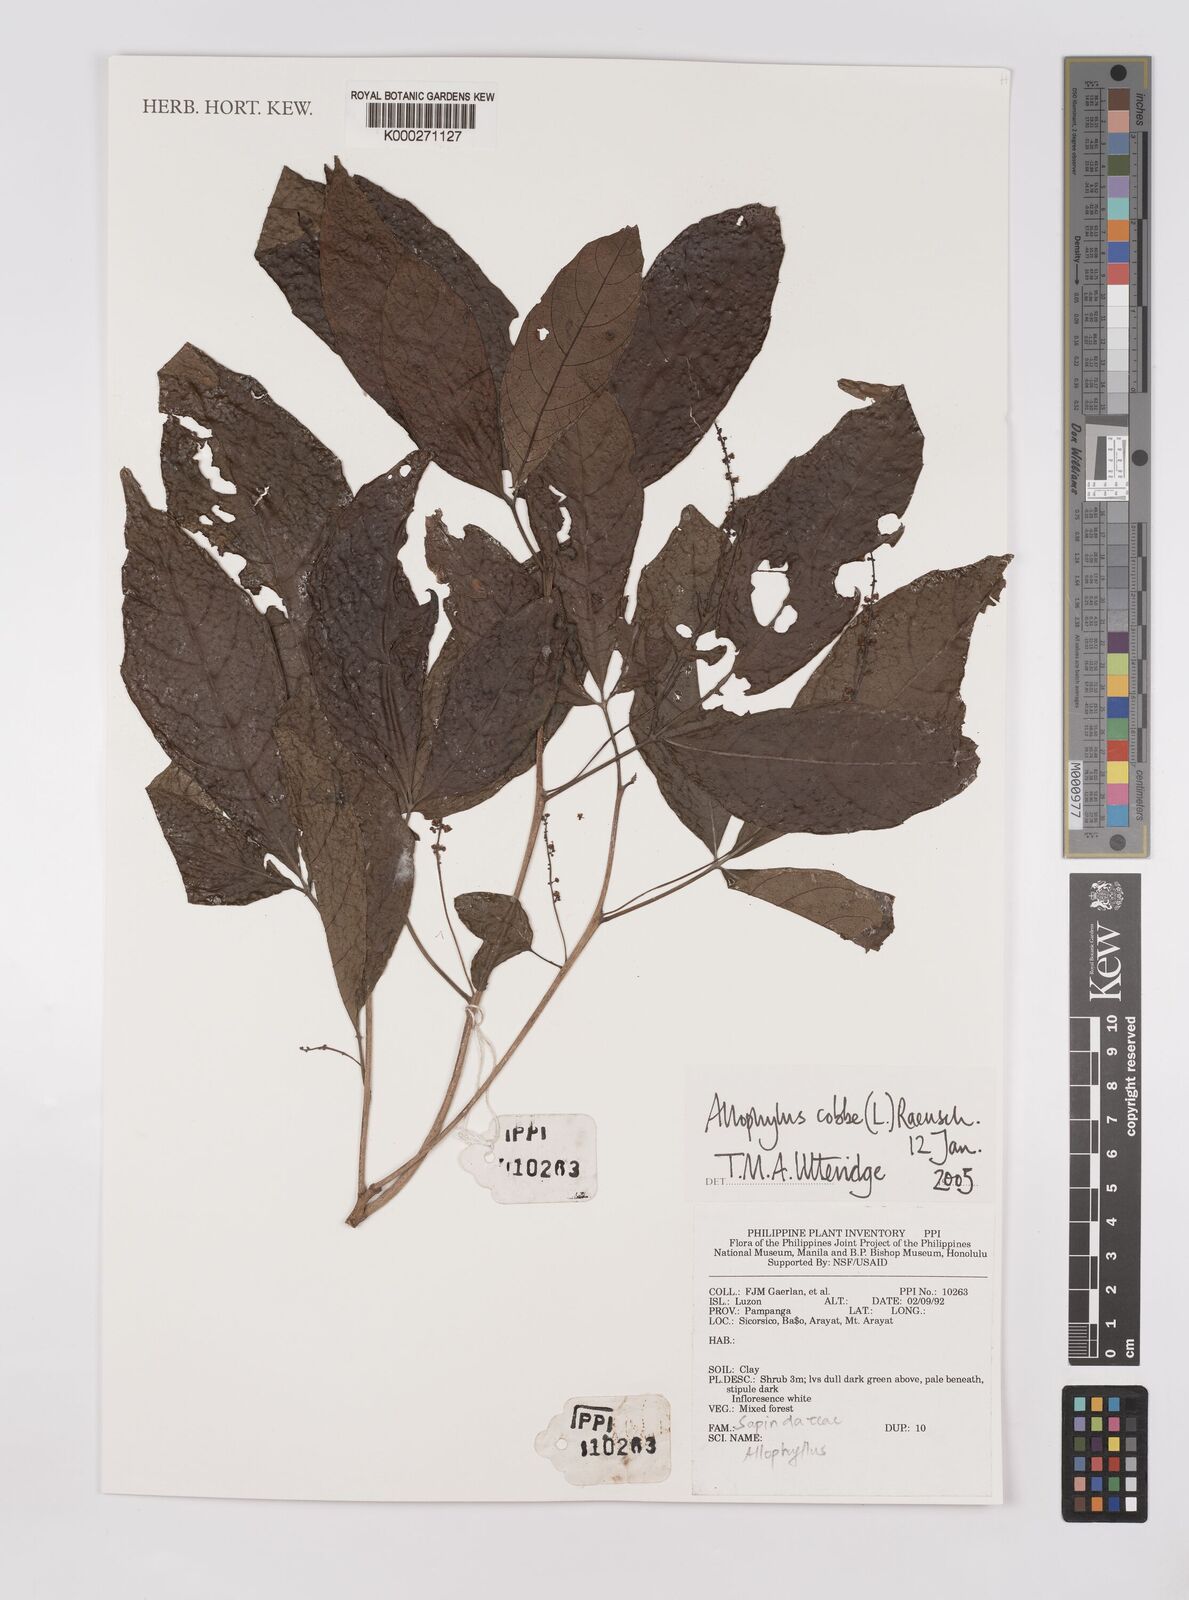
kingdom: Plantae
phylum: Tracheophyta
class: Magnoliopsida
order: Sapindales
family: Sapindaceae
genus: Allophylus
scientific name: Allophylus
